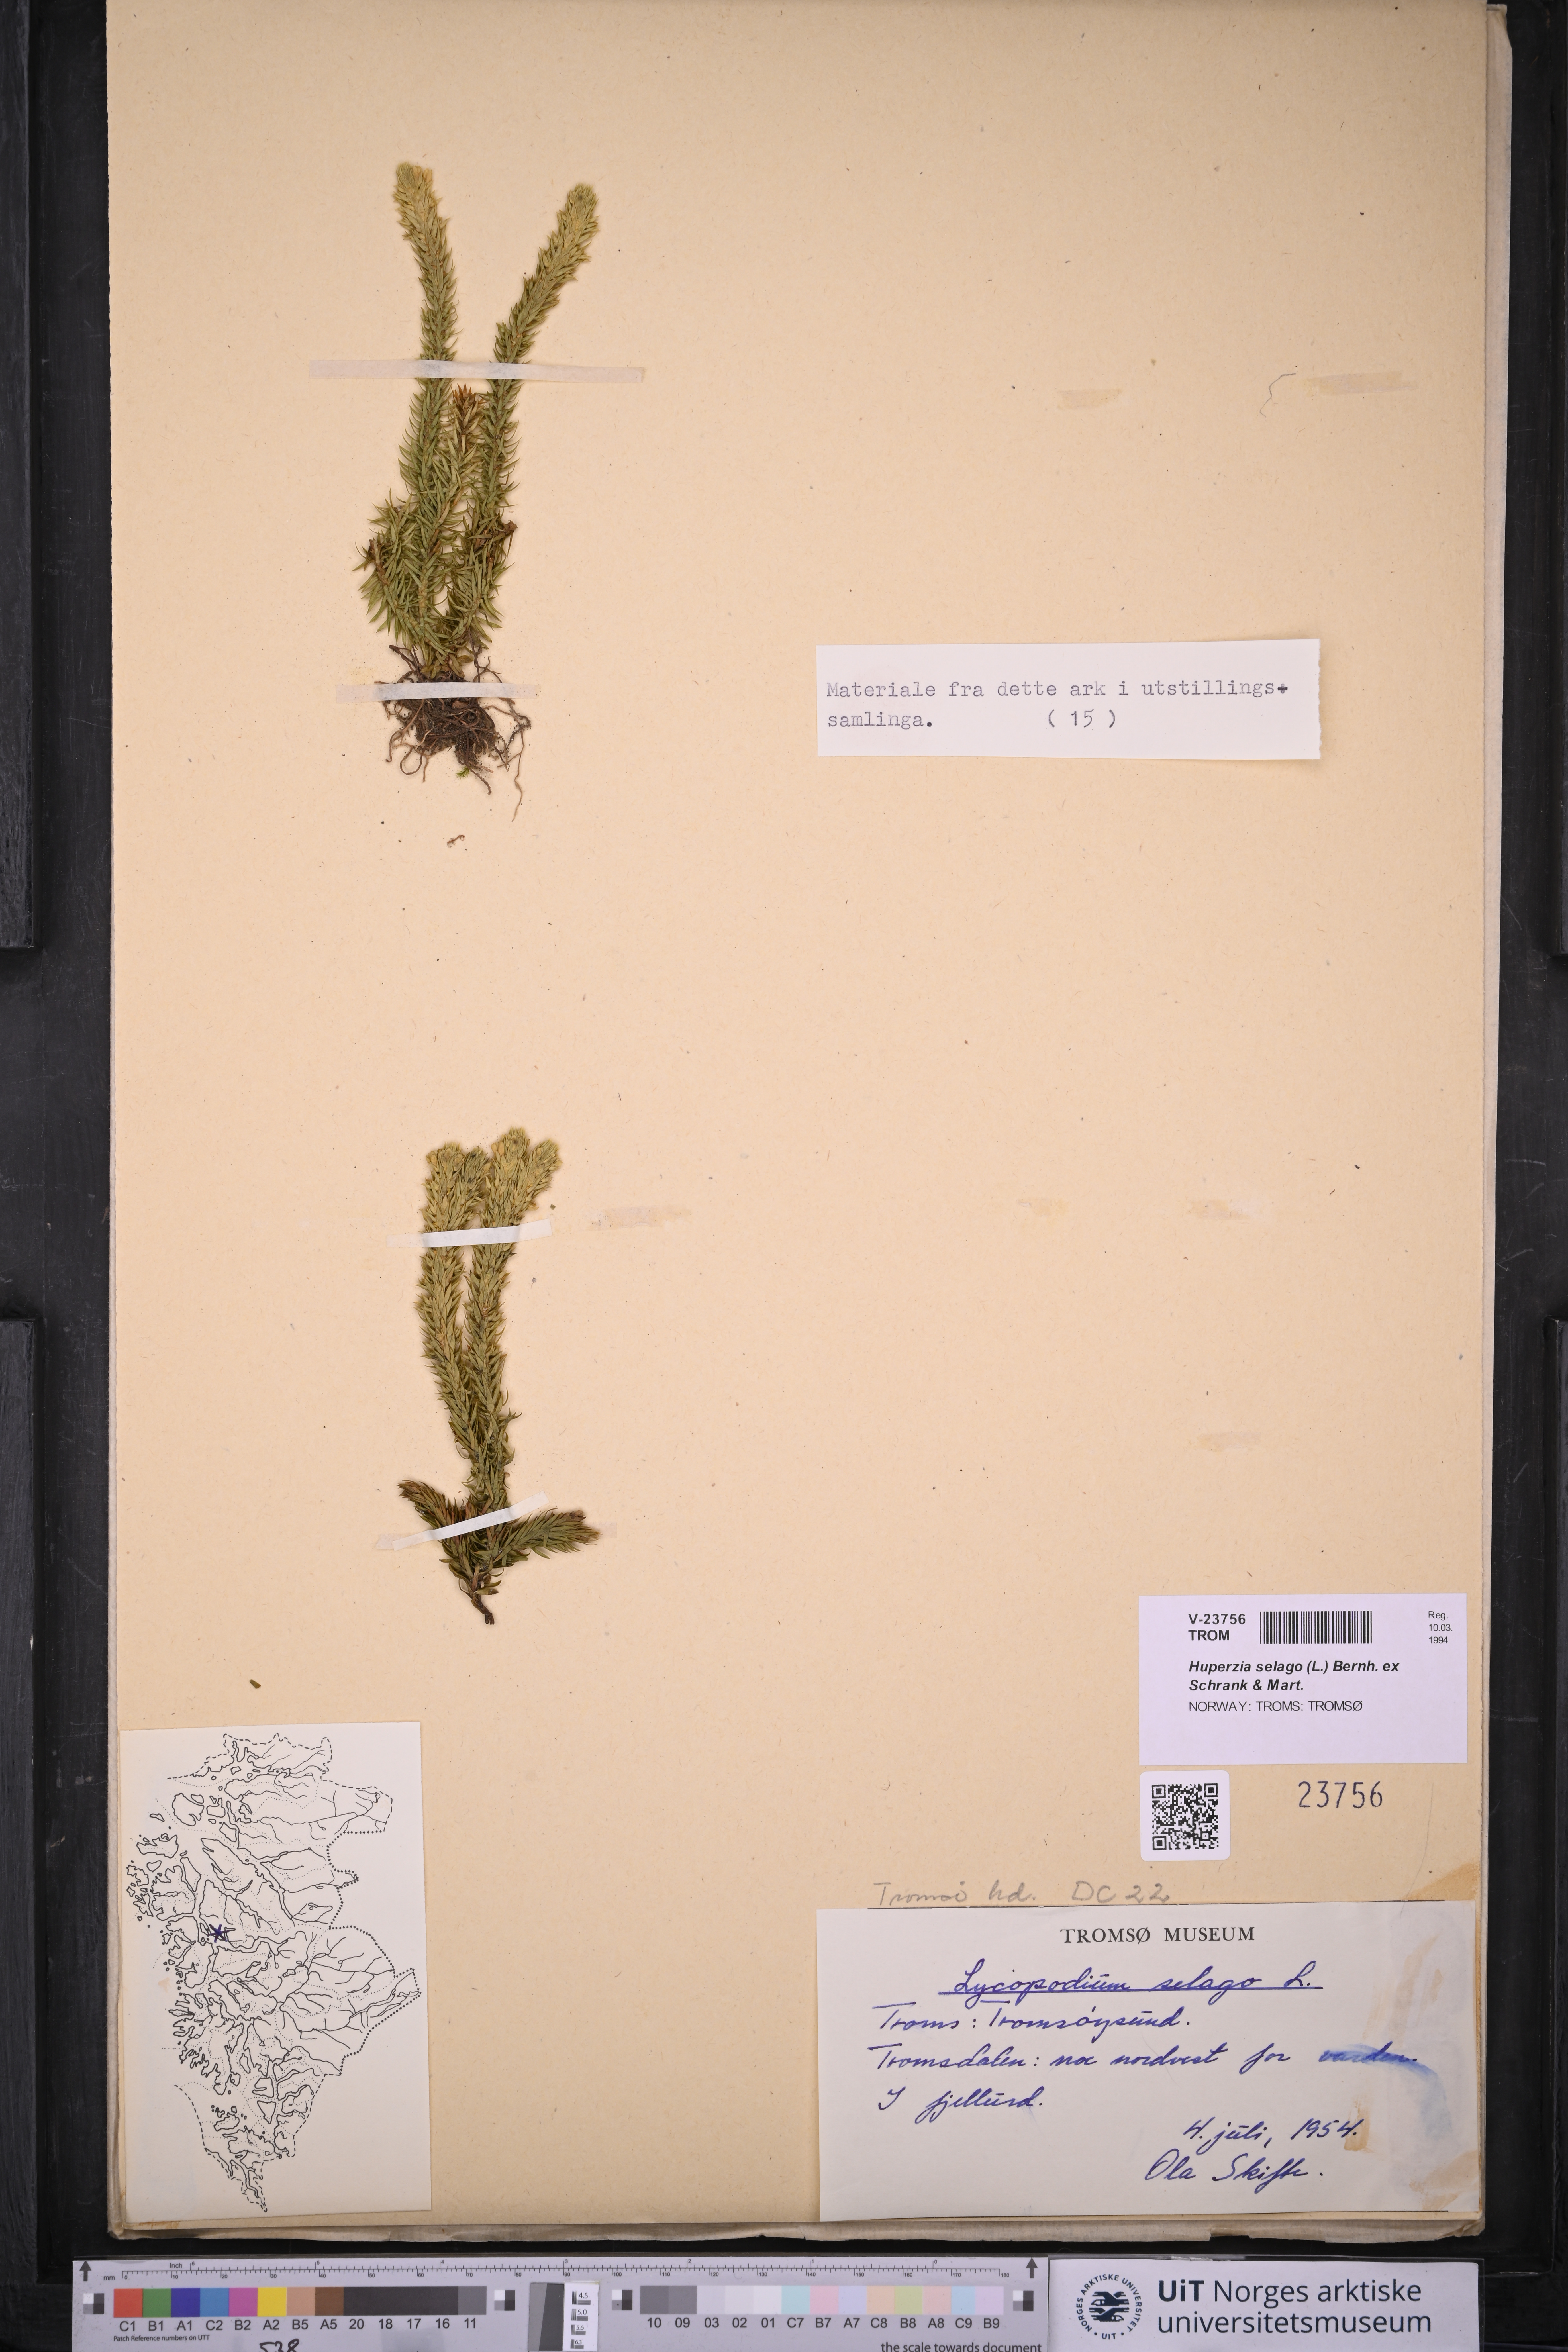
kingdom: Plantae
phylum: Tracheophyta
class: Lycopodiopsida
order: Lycopodiales
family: Lycopodiaceae
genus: Huperzia
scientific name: Huperzia selago
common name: Northern firmoss
